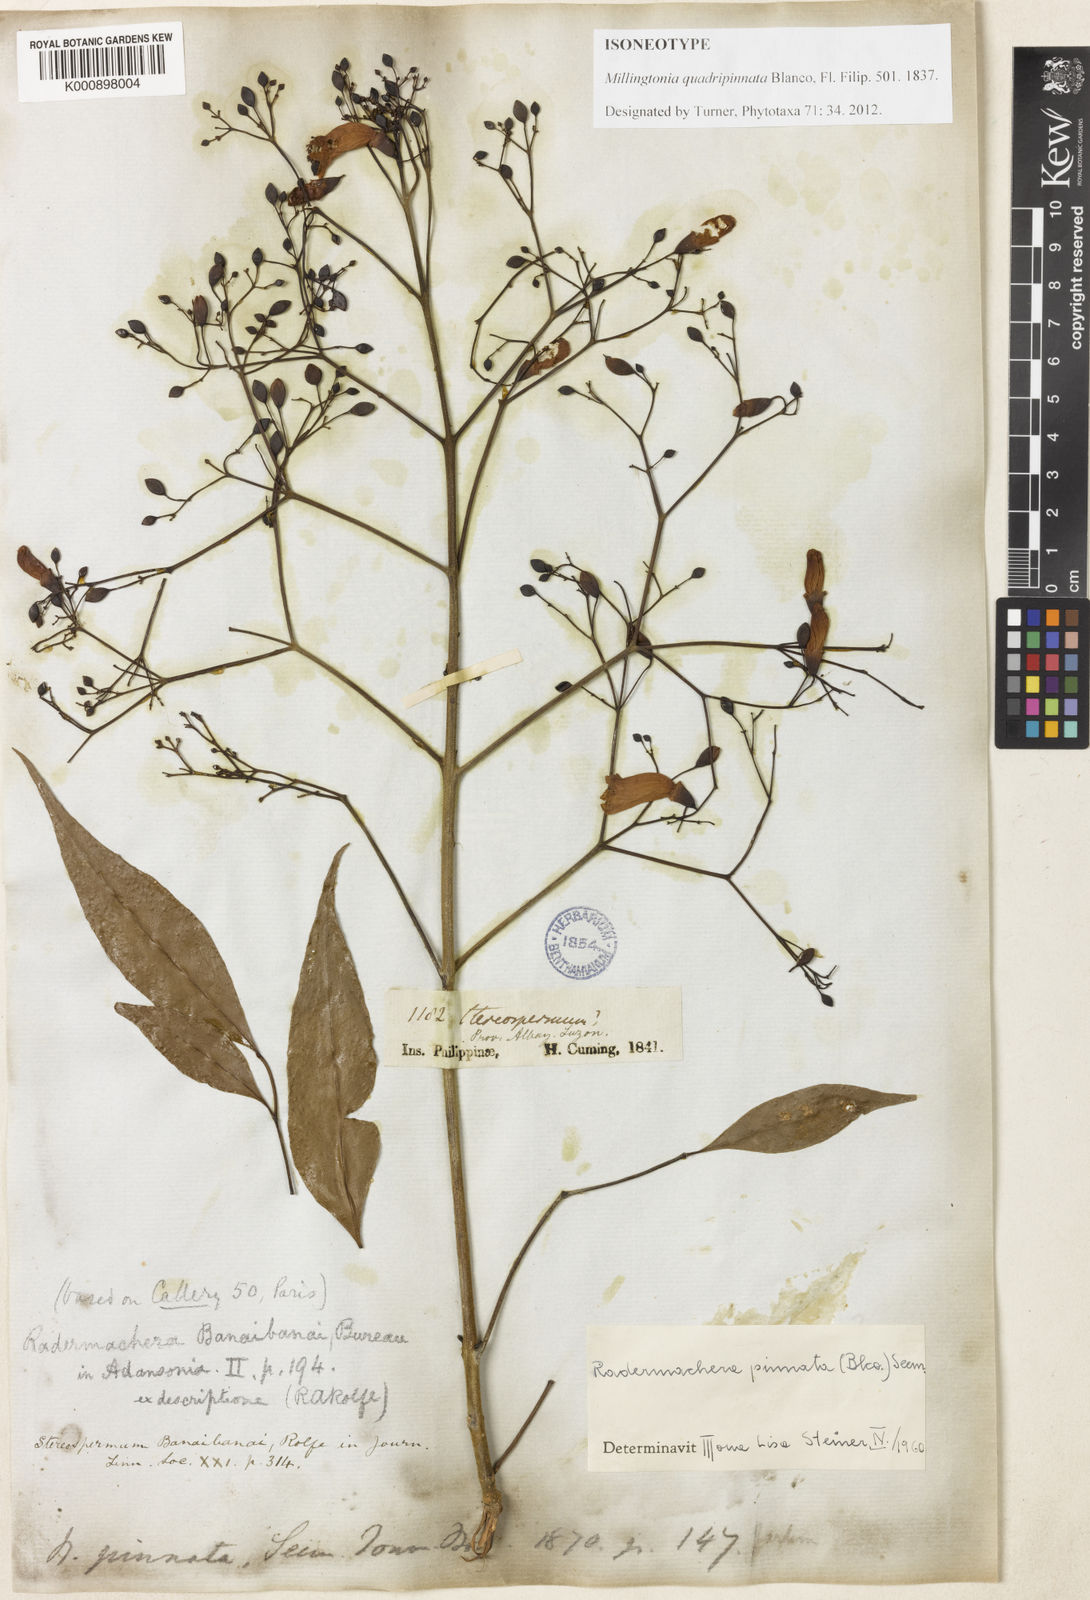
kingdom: Plantae
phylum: Tracheophyta
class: Magnoliopsida
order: Lamiales
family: Bignoniaceae
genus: Radermachera
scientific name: Radermachera quadripinnata
